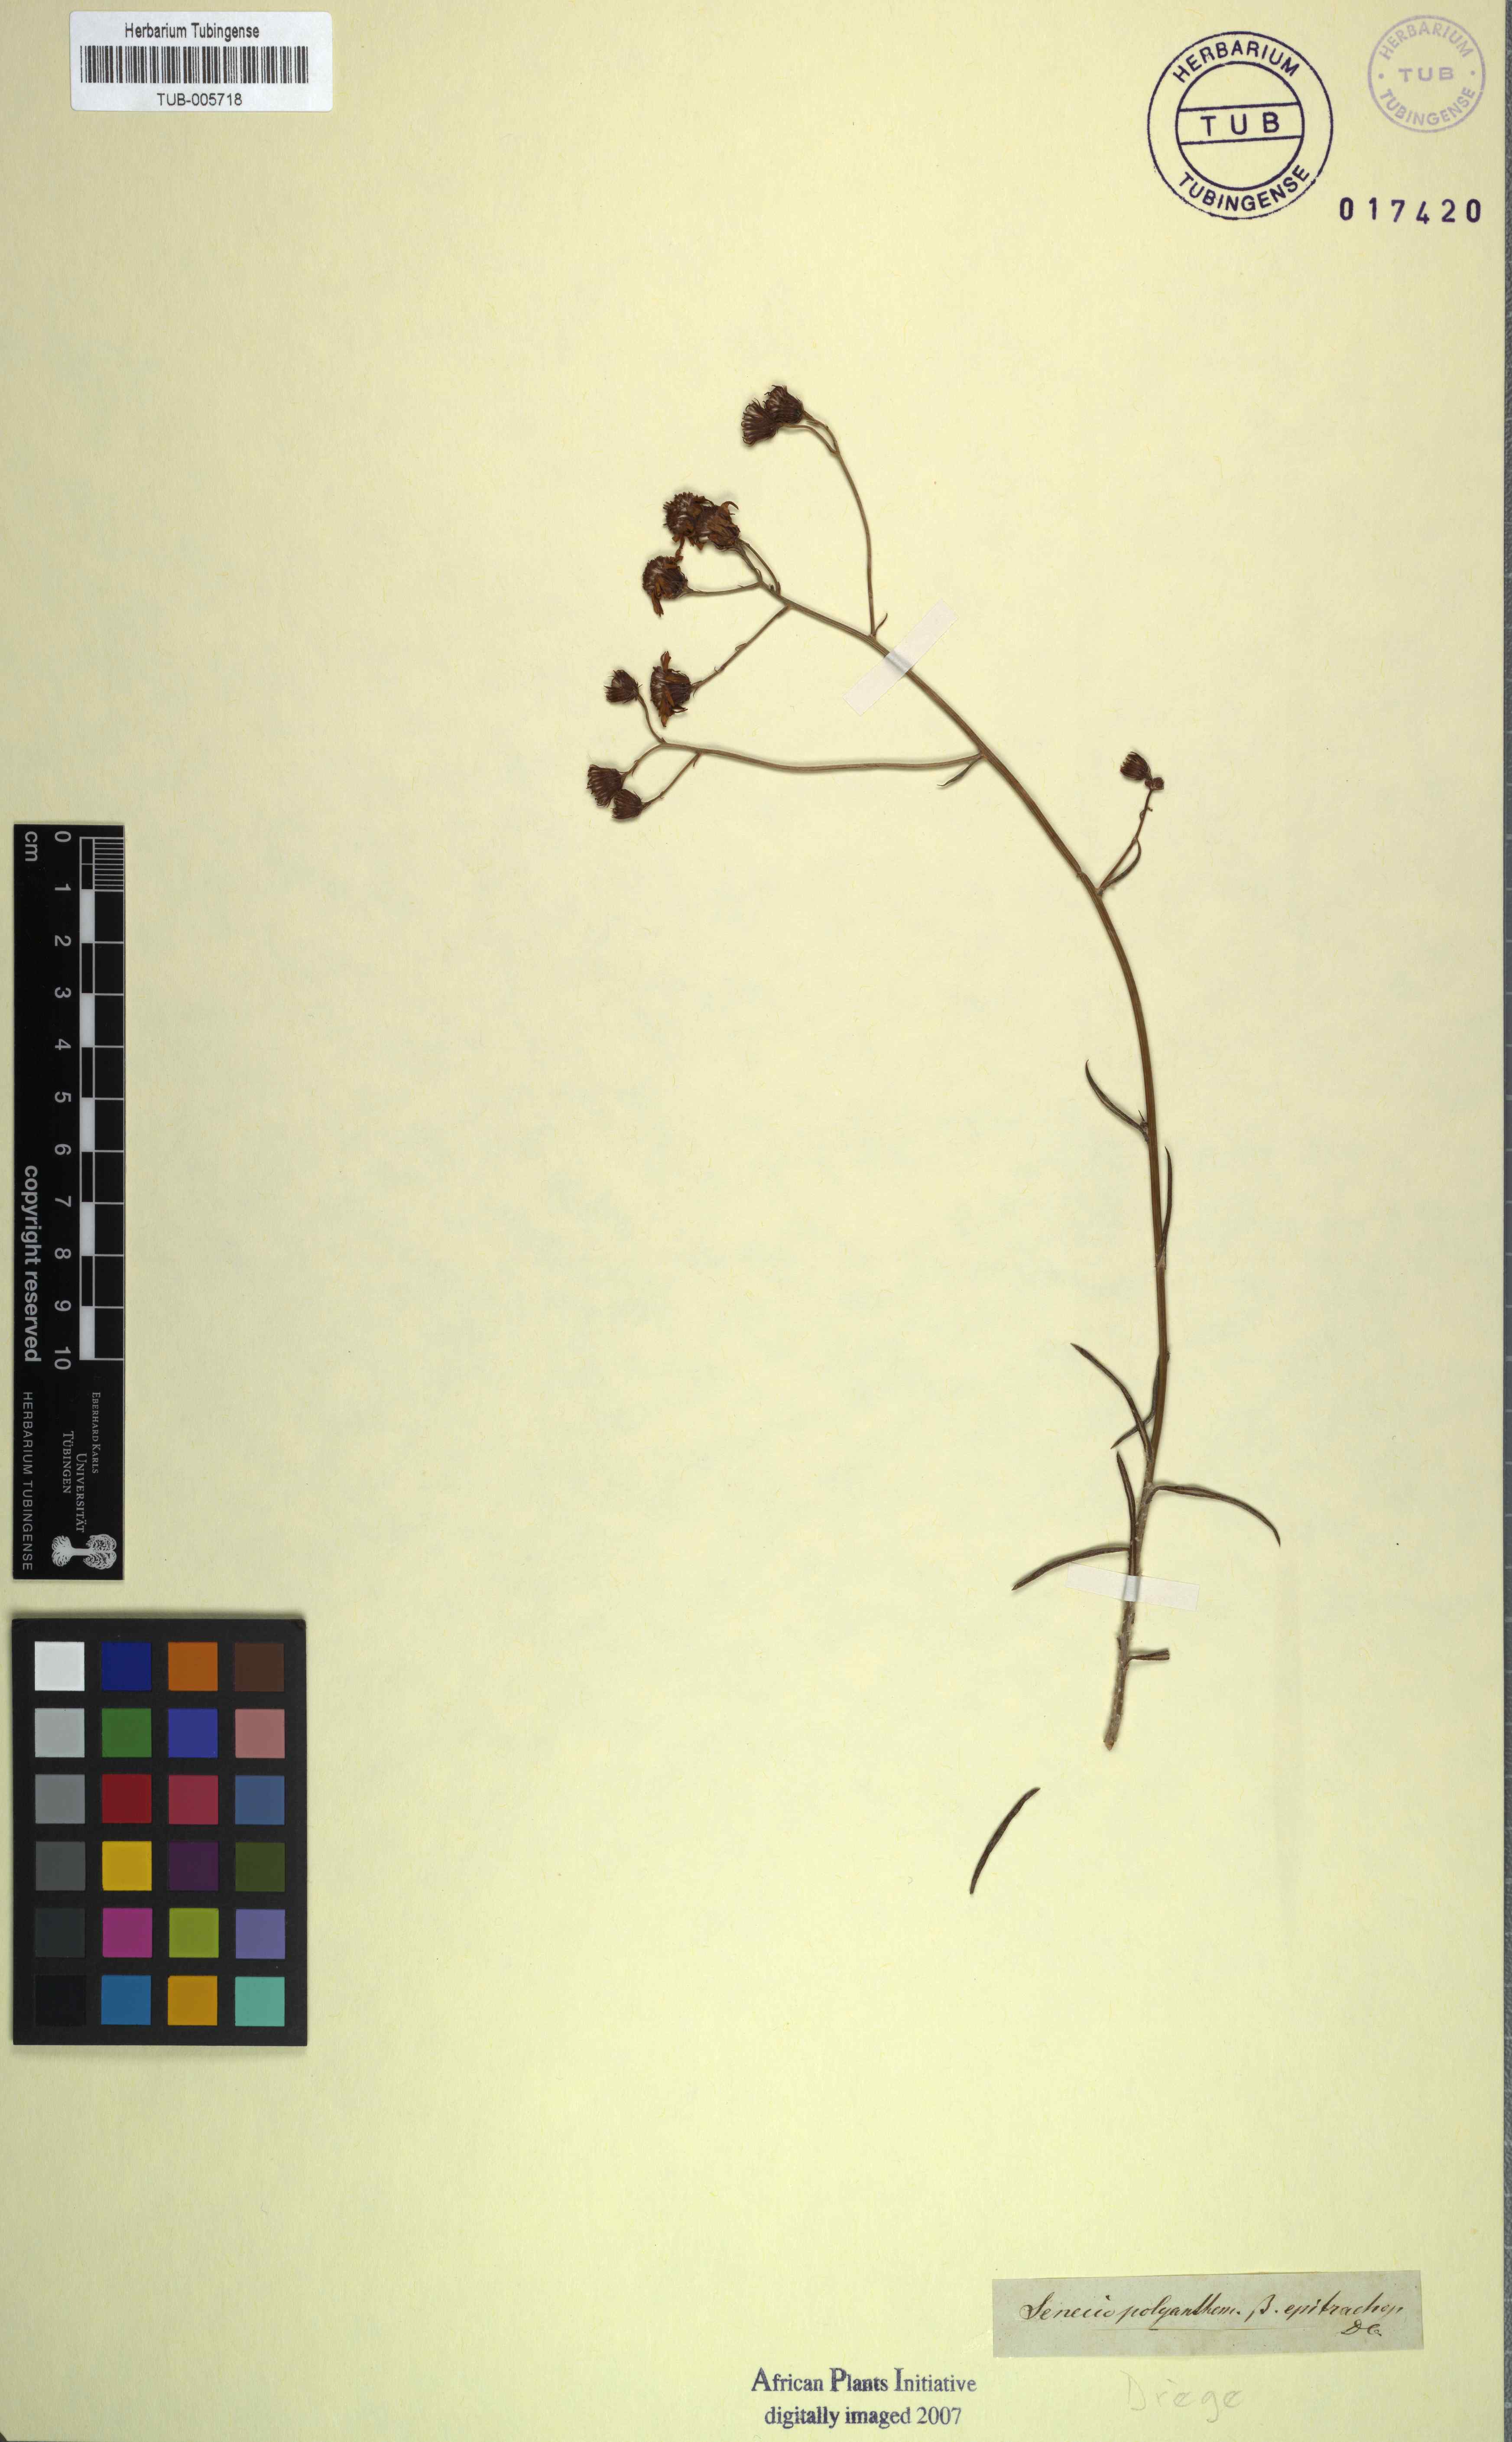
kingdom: Plantae
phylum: Tracheophyta
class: Magnoliopsida
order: Asterales
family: Asteraceae
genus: Senecio
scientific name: Senecio pterophorus
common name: Shoddy ragwort
